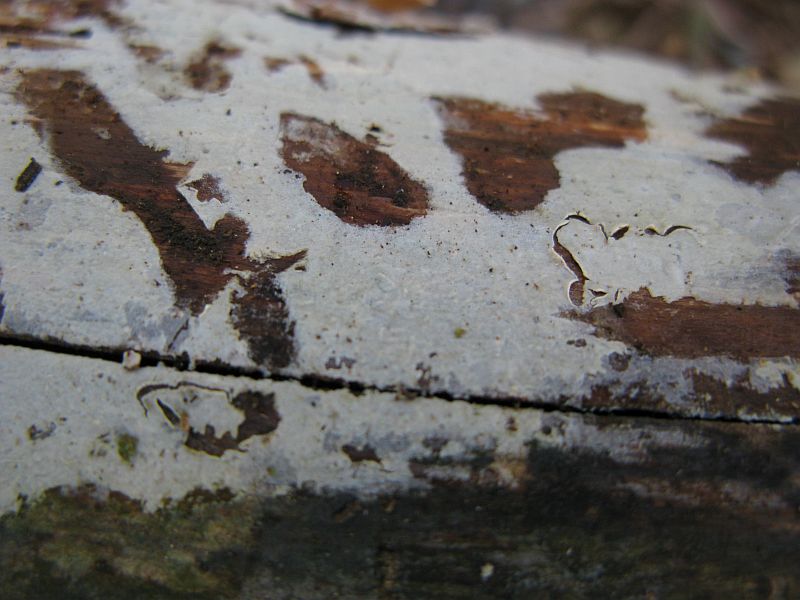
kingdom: Fungi
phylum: Basidiomycota
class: Agaricomycetes
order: Hymenochaetales
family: Hymenochaetaceae
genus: Tubulicrinis
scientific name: Tubulicrinis subulatus
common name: spids nålehinde
